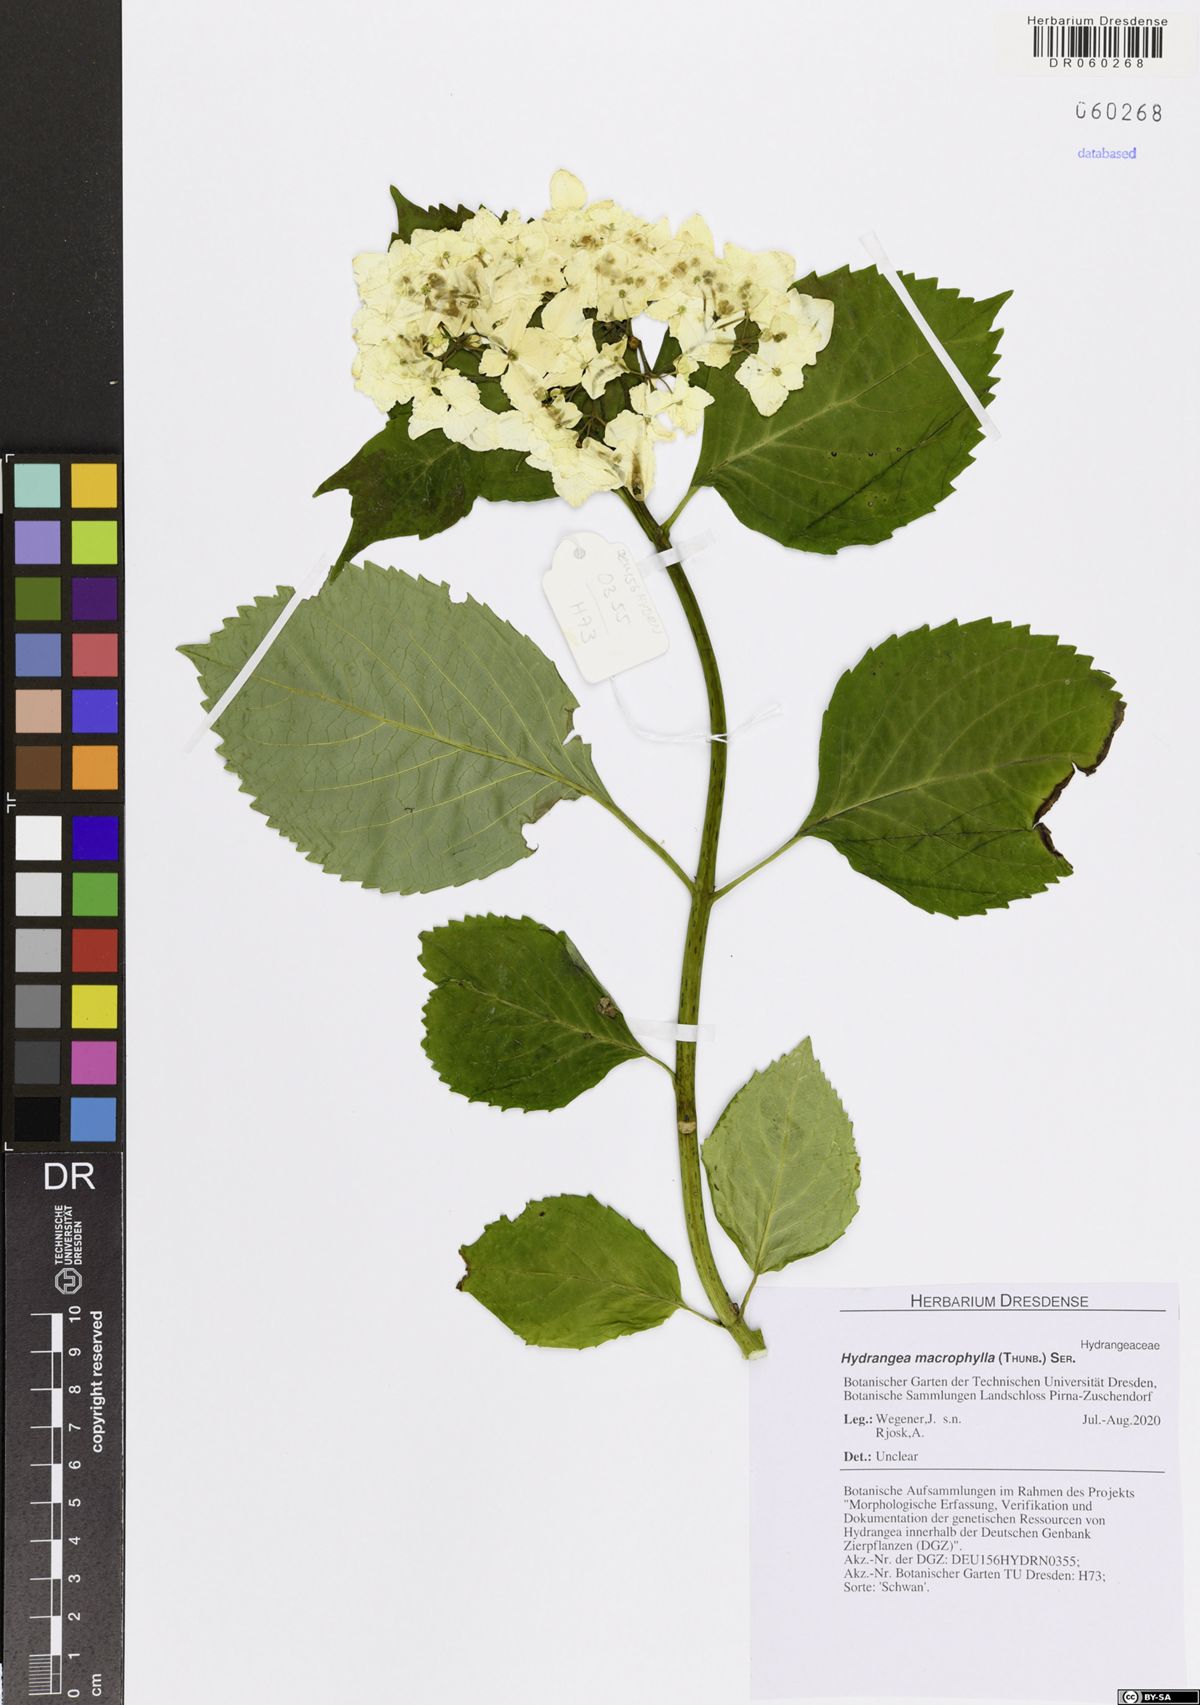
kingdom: Plantae
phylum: Tracheophyta
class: Magnoliopsida
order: Cornales
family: Hydrangeaceae
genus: Hydrangea
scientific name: Hydrangea macrophylla
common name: Hydrangea
